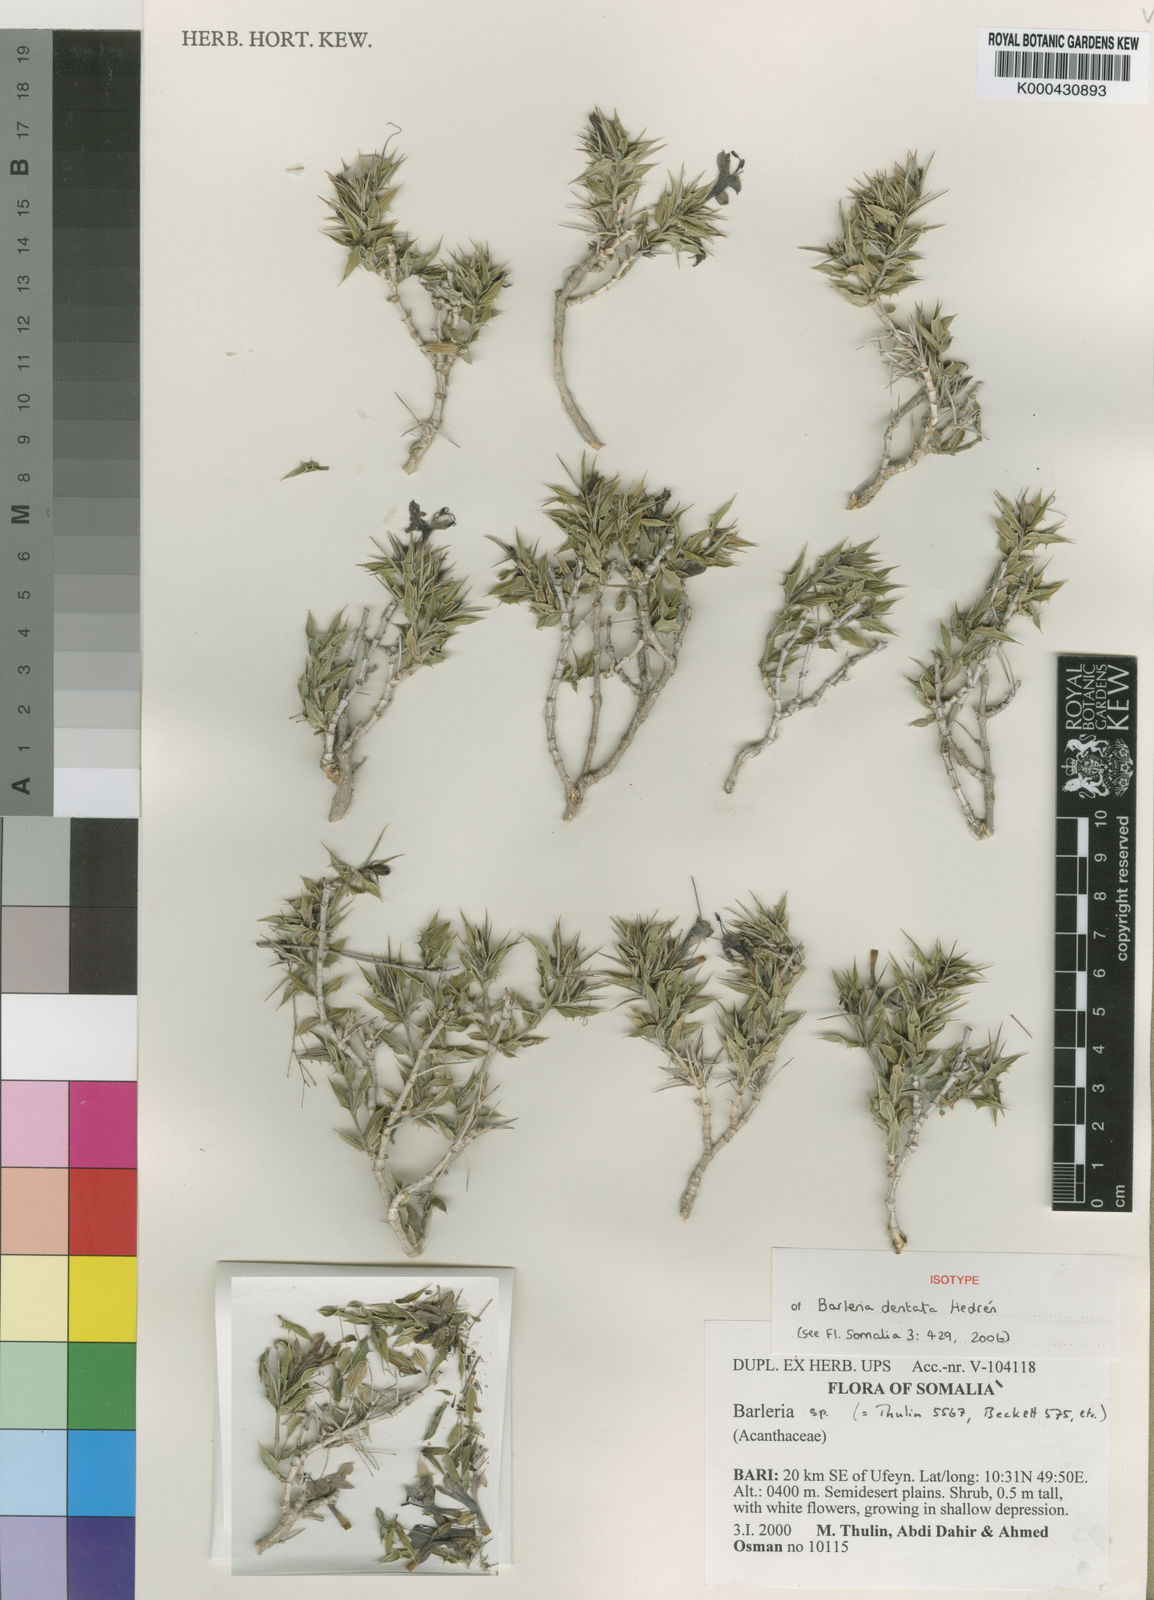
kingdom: Plantae
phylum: Tracheophyta
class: Magnoliopsida
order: Lamiales
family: Acanthaceae
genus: Barleria
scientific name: Barleria
